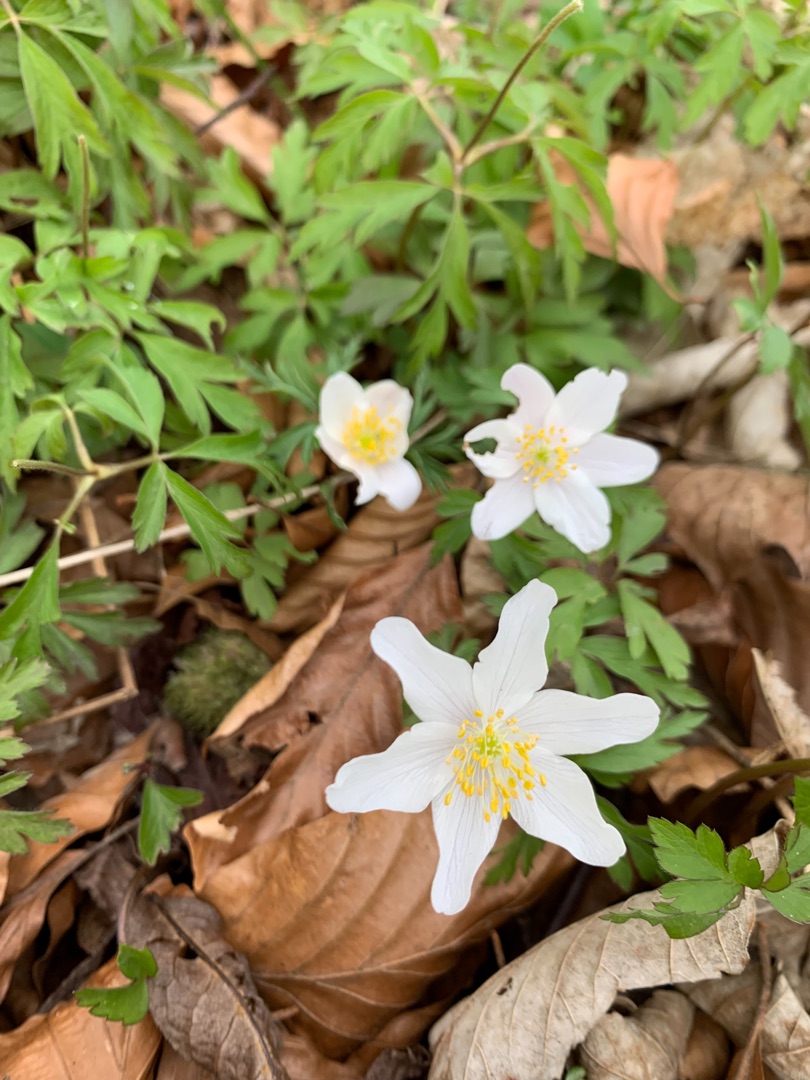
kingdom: Plantae
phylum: Tracheophyta
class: Magnoliopsida
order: Ranunculales
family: Ranunculaceae
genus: Anemone
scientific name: Anemone nemorosa
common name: Hvid anemone
